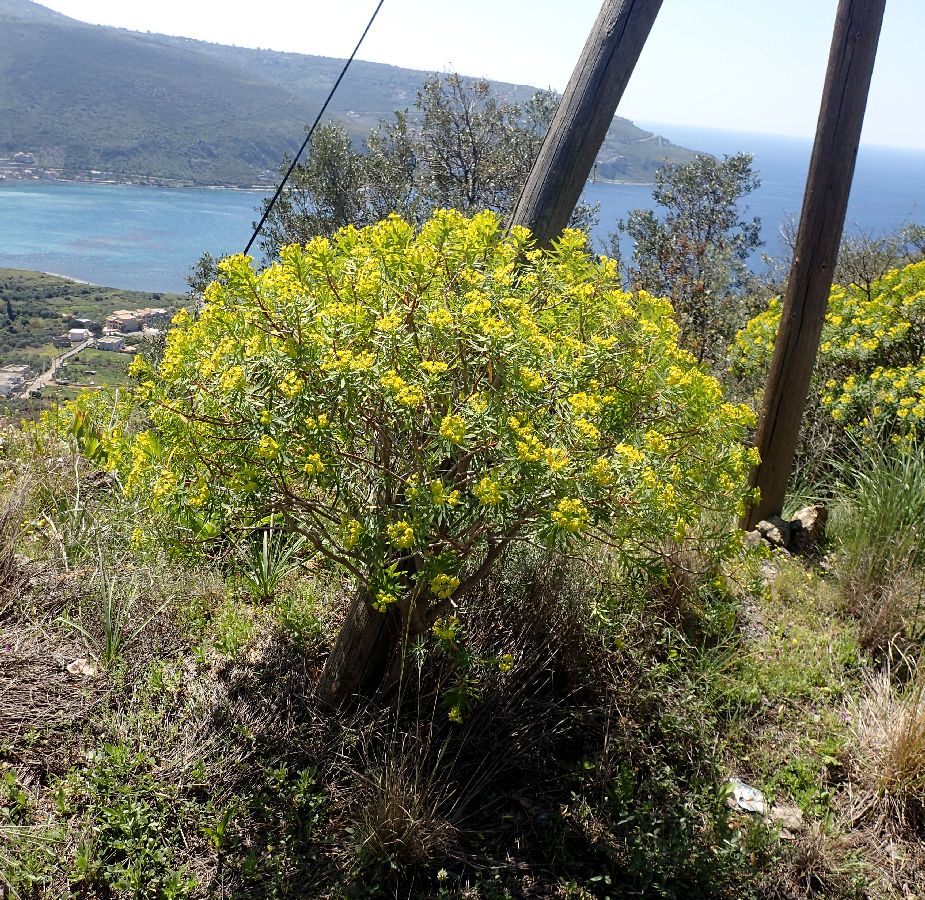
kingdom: Plantae
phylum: Tracheophyta
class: Magnoliopsida
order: Malpighiales
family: Euphorbiaceae
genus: Euphorbia
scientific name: Euphorbia dendroides
